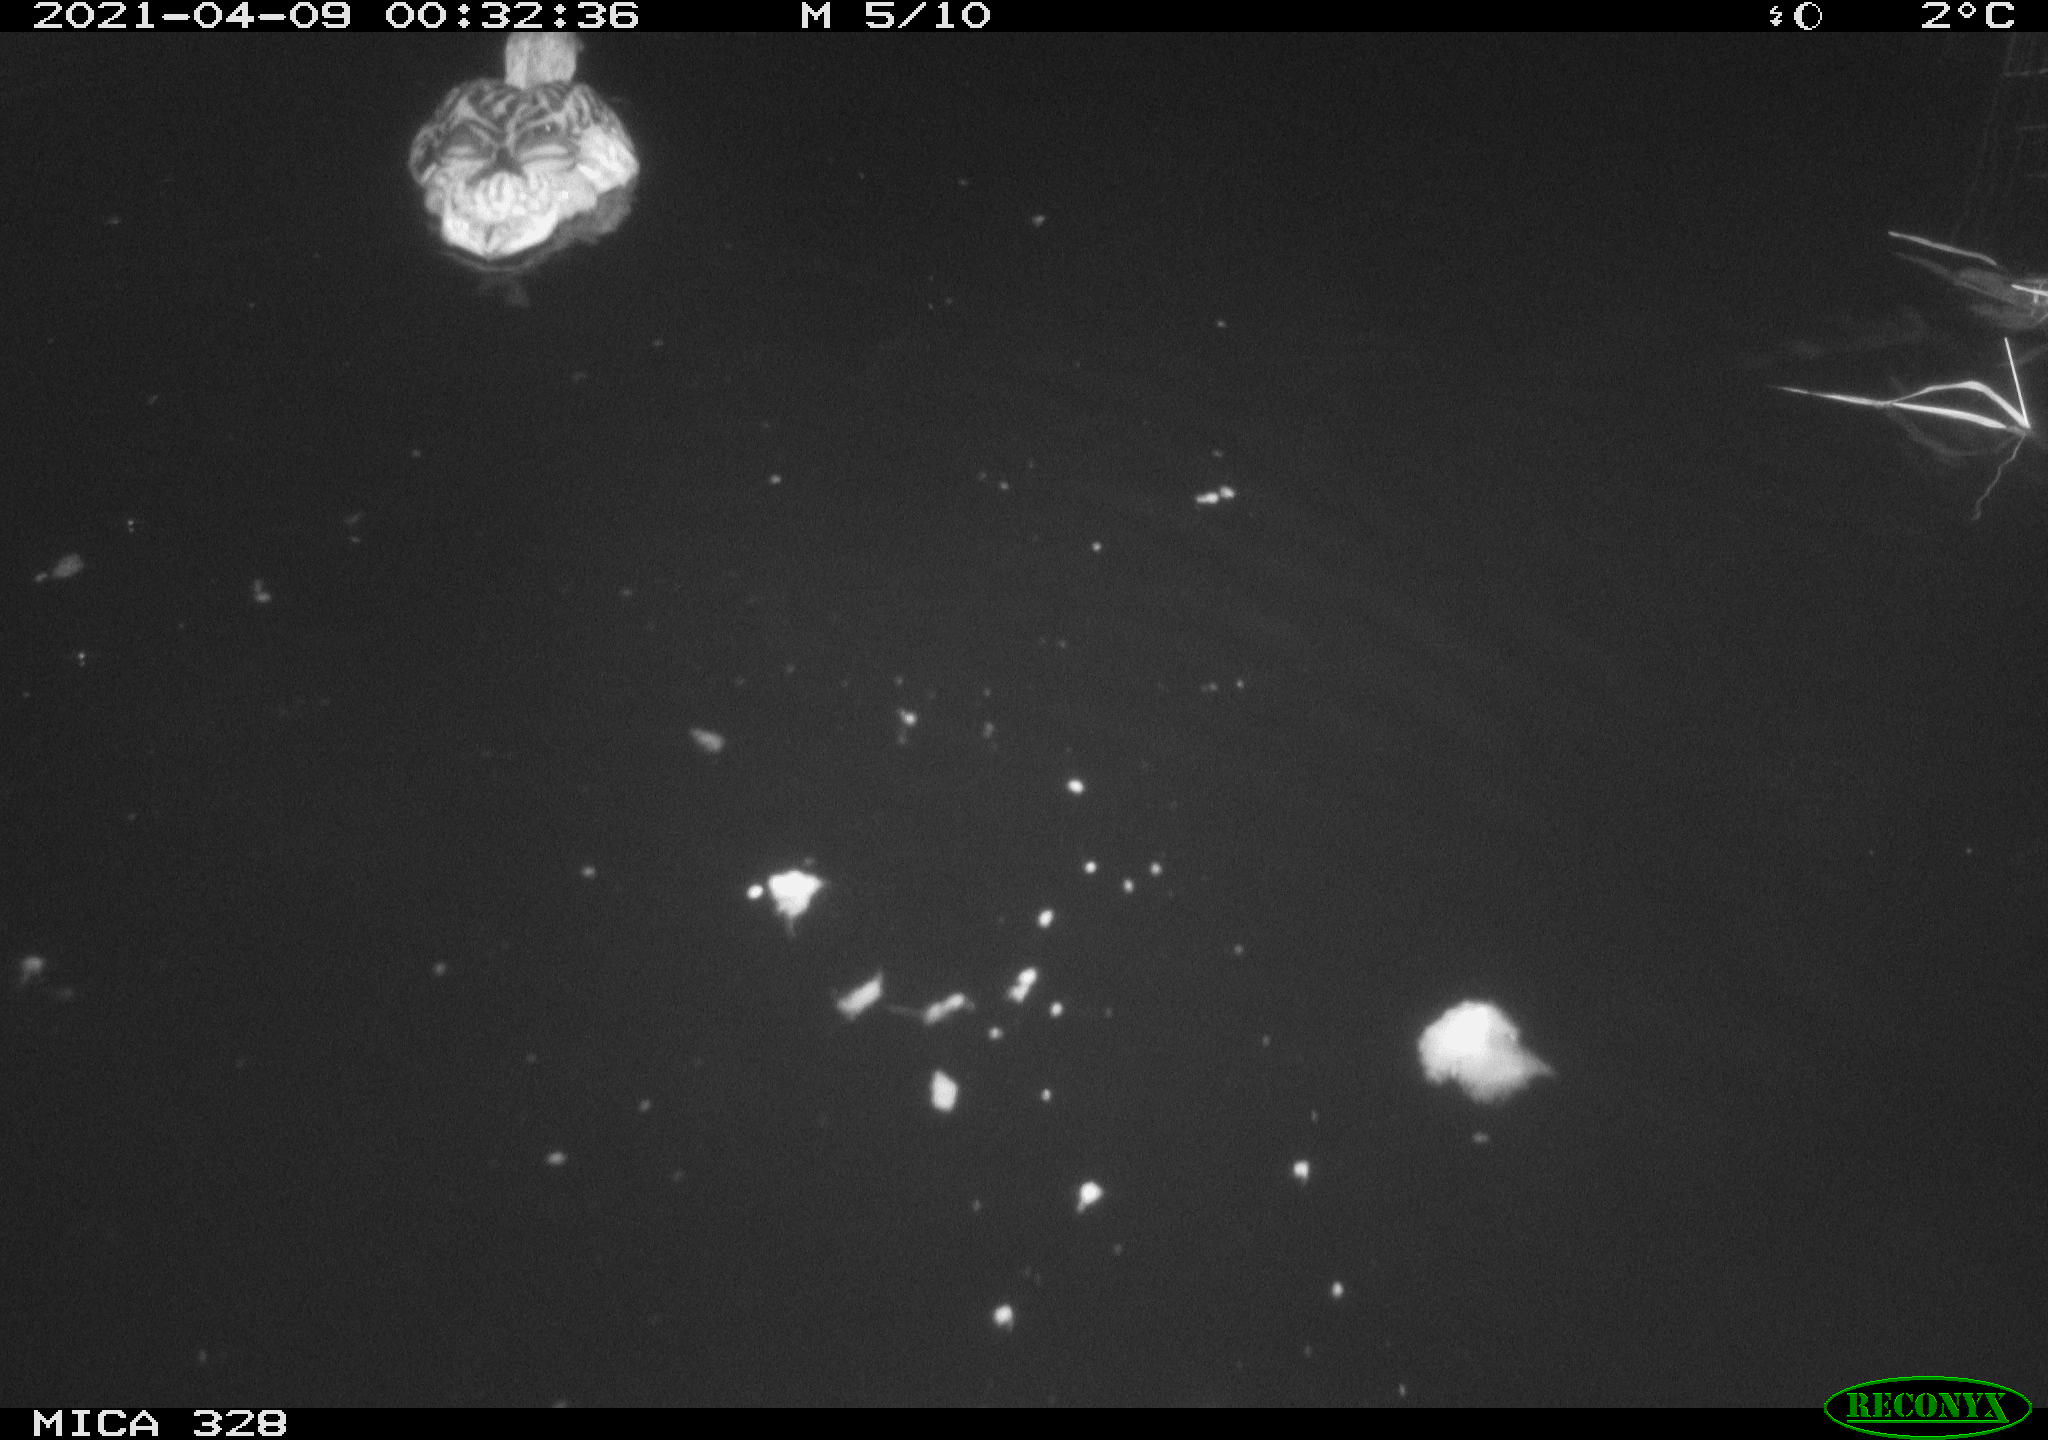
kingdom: Animalia
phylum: Chordata
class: Aves
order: Anseriformes
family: Anatidae
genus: Anas
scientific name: Anas platyrhynchos
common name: Mallard
